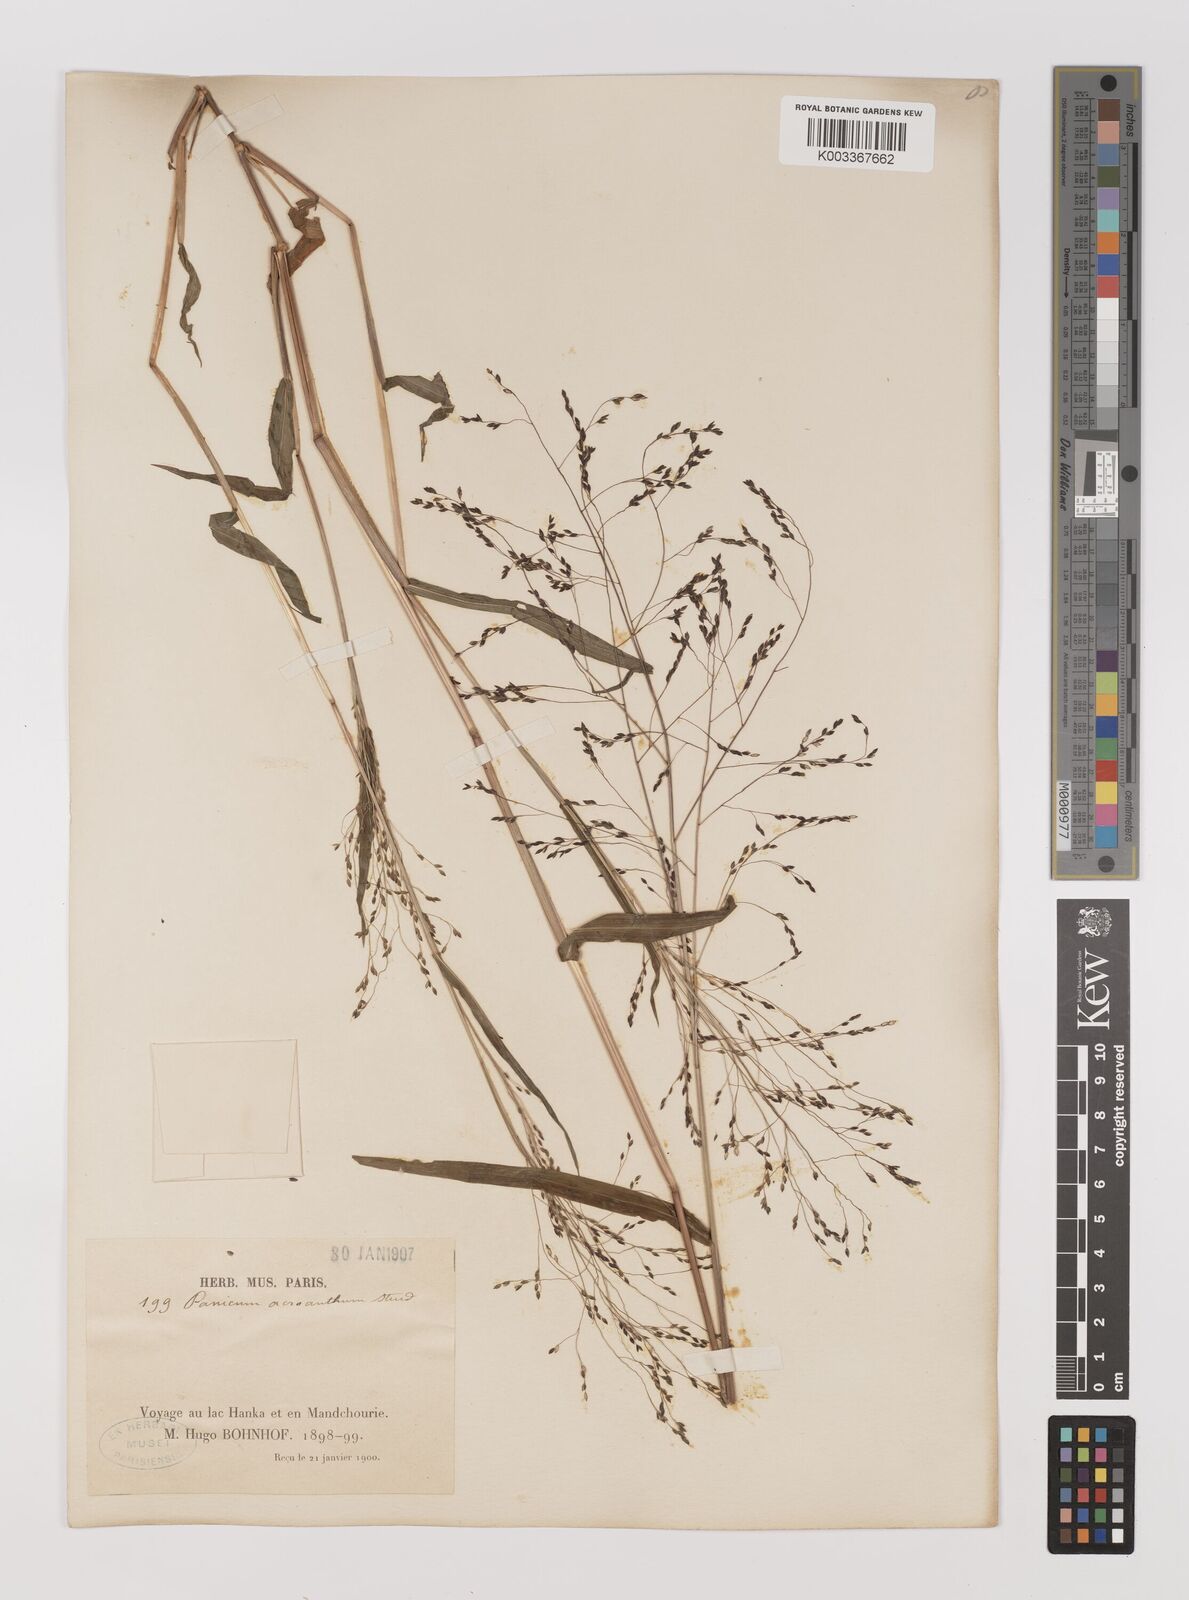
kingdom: Plantae
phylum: Tracheophyta
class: Liliopsida
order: Poales
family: Poaceae
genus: Panicum
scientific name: Panicum bisulcatum
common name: Japanese panicgrass
